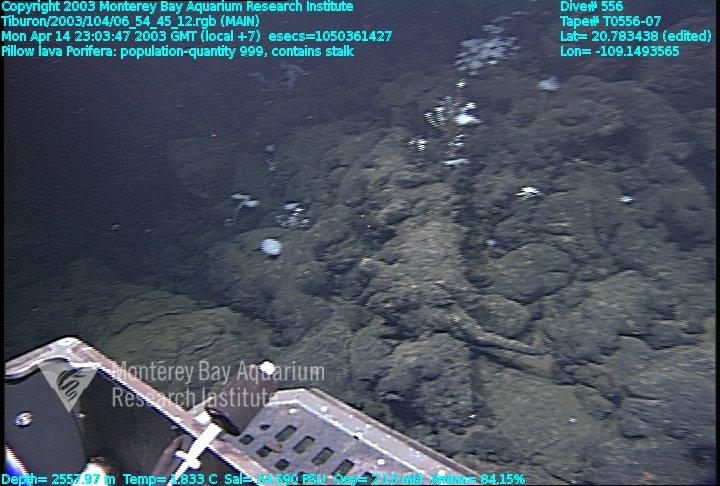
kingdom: Animalia
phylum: Porifera
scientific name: Porifera
